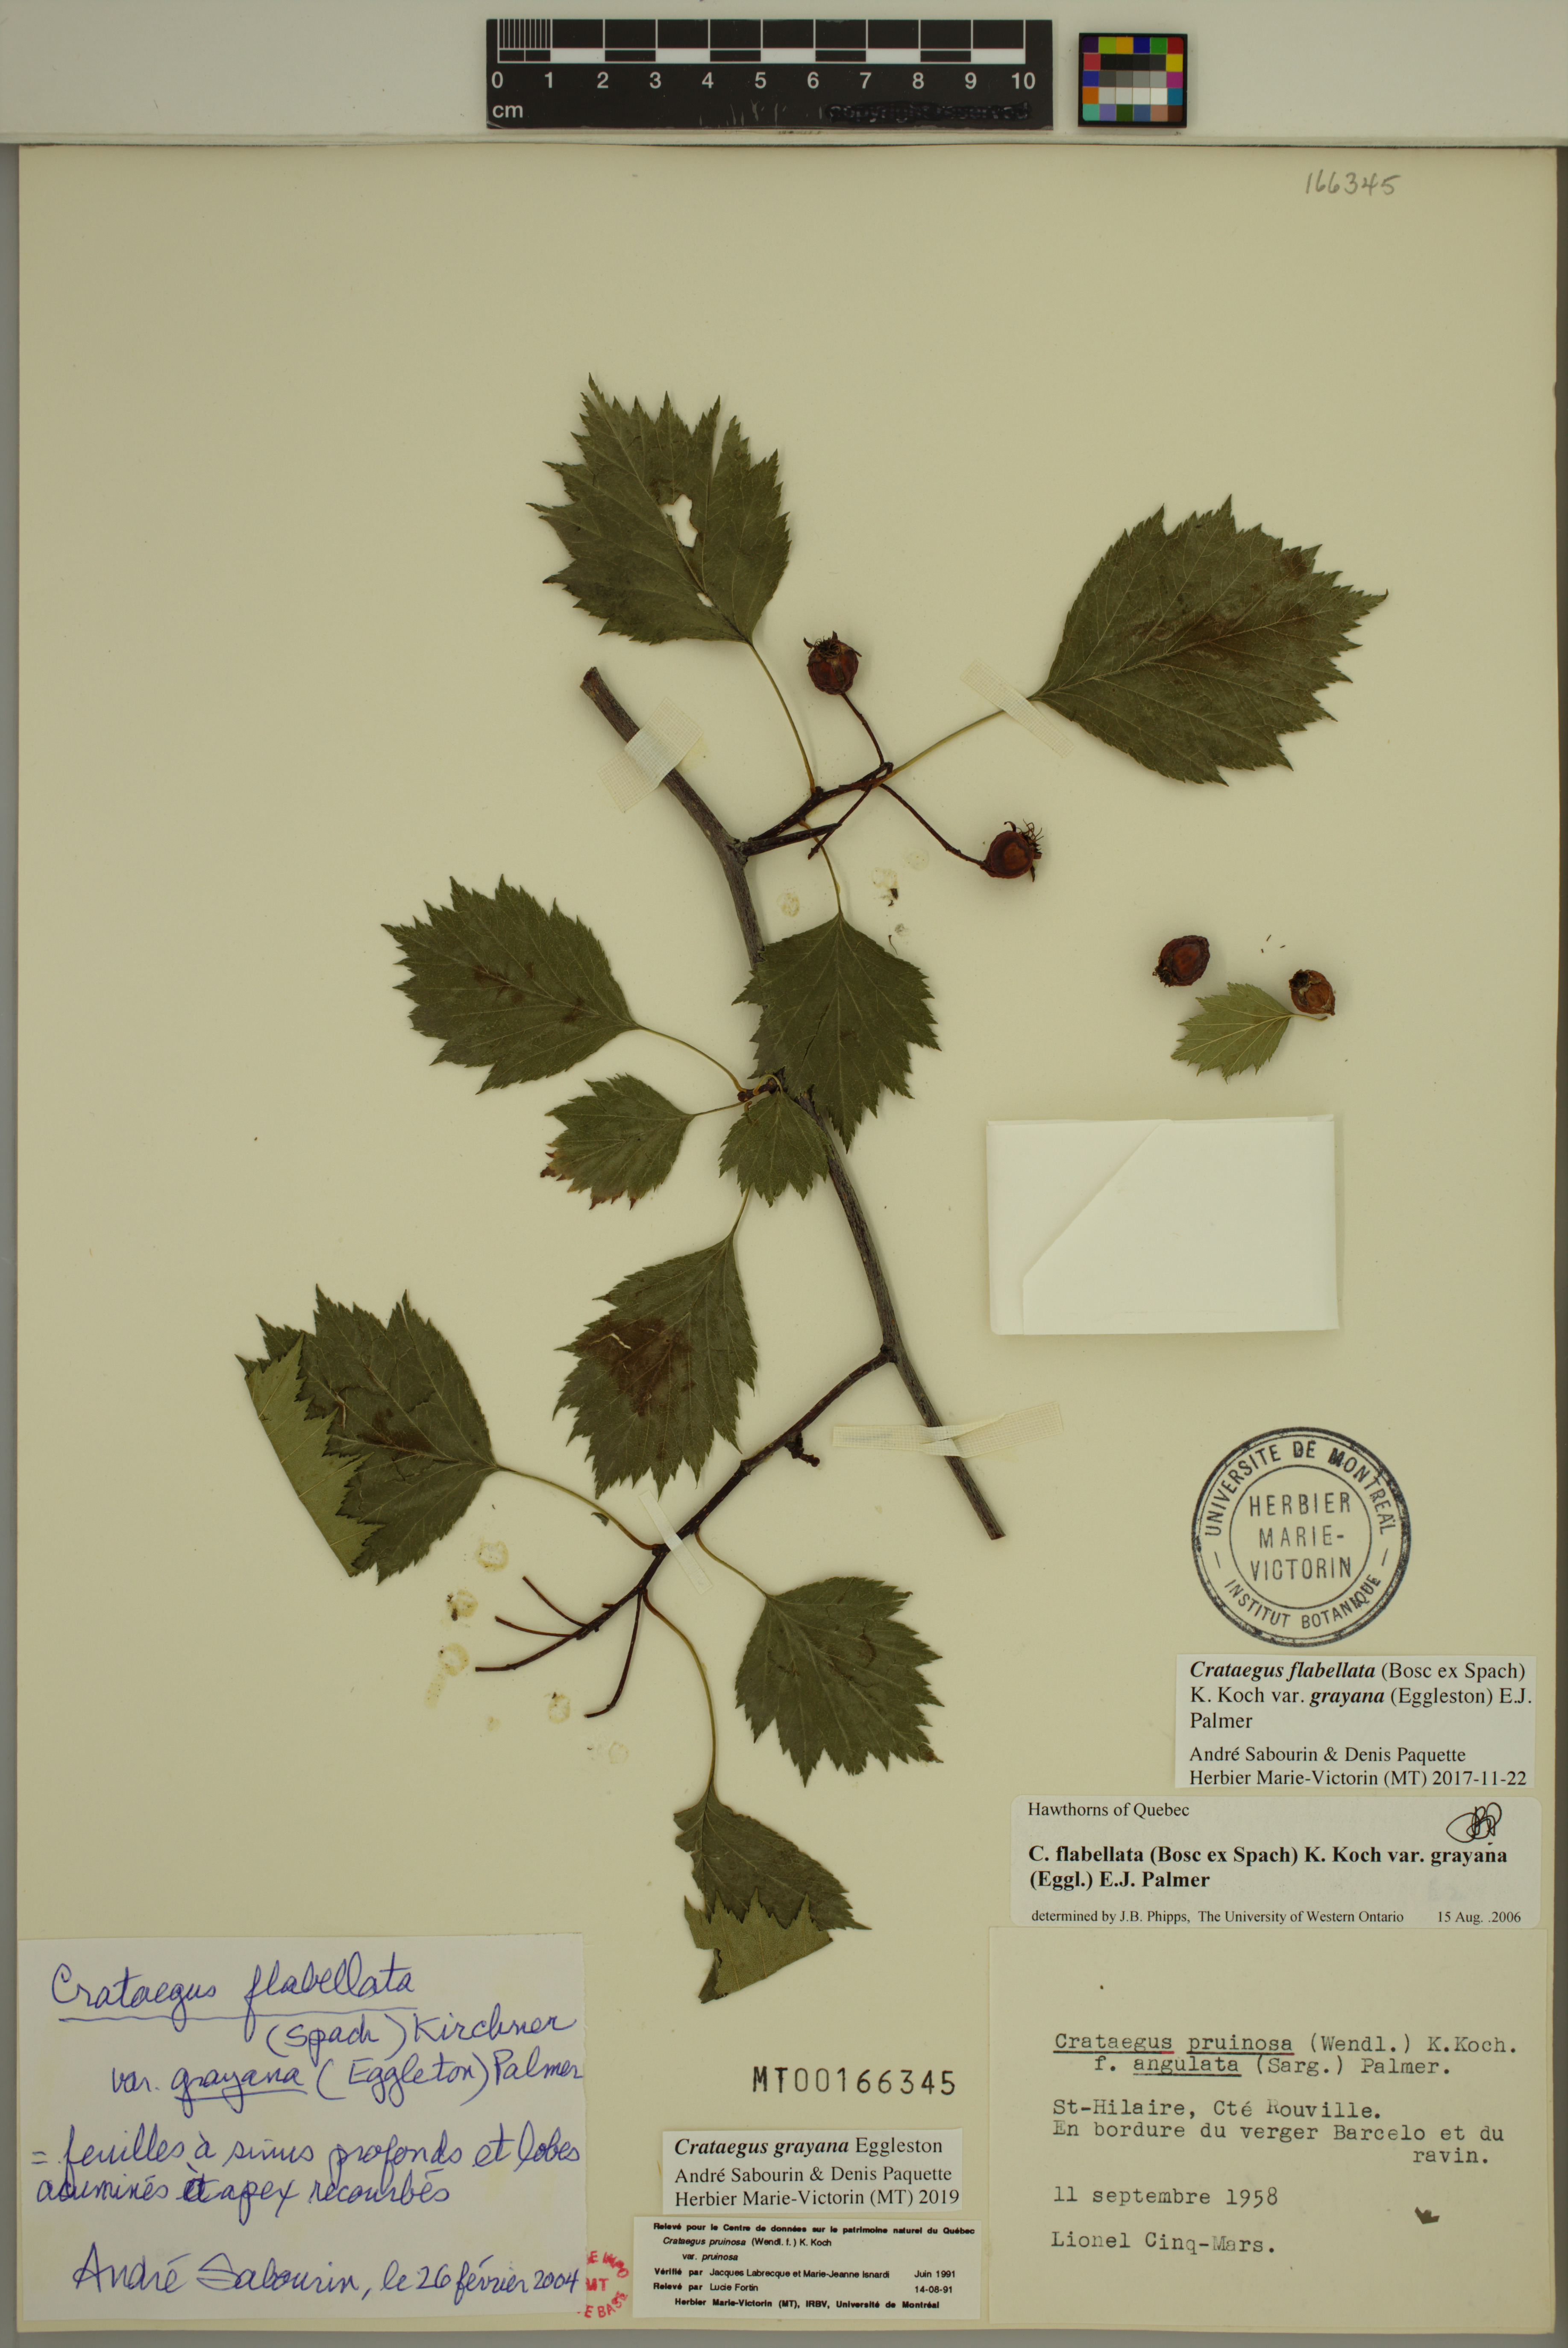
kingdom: Plantae
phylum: Tracheophyta
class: Magnoliopsida
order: Rosales
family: Rosaceae
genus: Crataegus
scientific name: Crataegus schuettei
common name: Schuette's hawthorn
